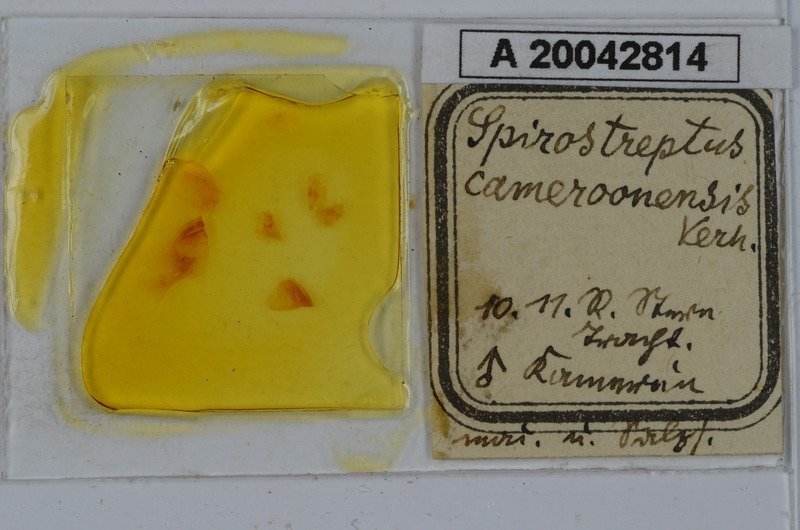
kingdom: Animalia
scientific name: Animalia
